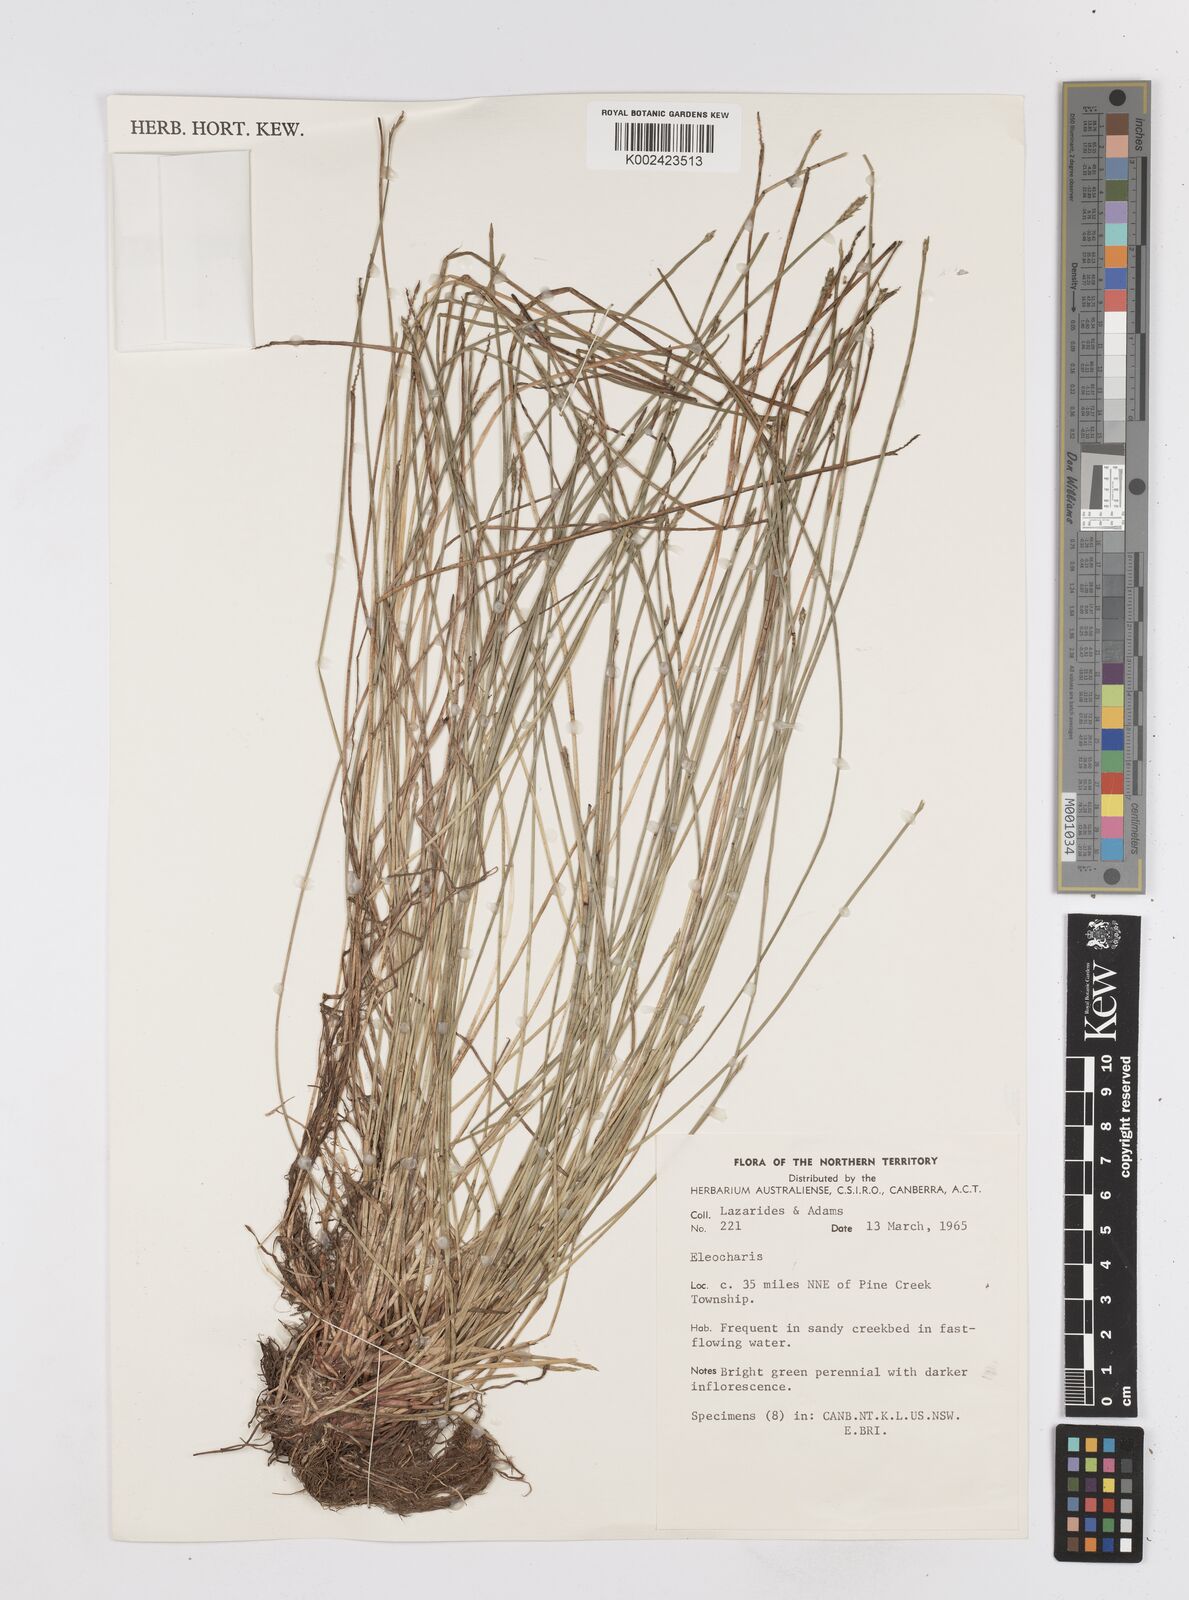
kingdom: Plantae
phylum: Tracheophyta
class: Liliopsida
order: Poales
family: Cyperaceae
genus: Eleocharis
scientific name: Eleocharis
